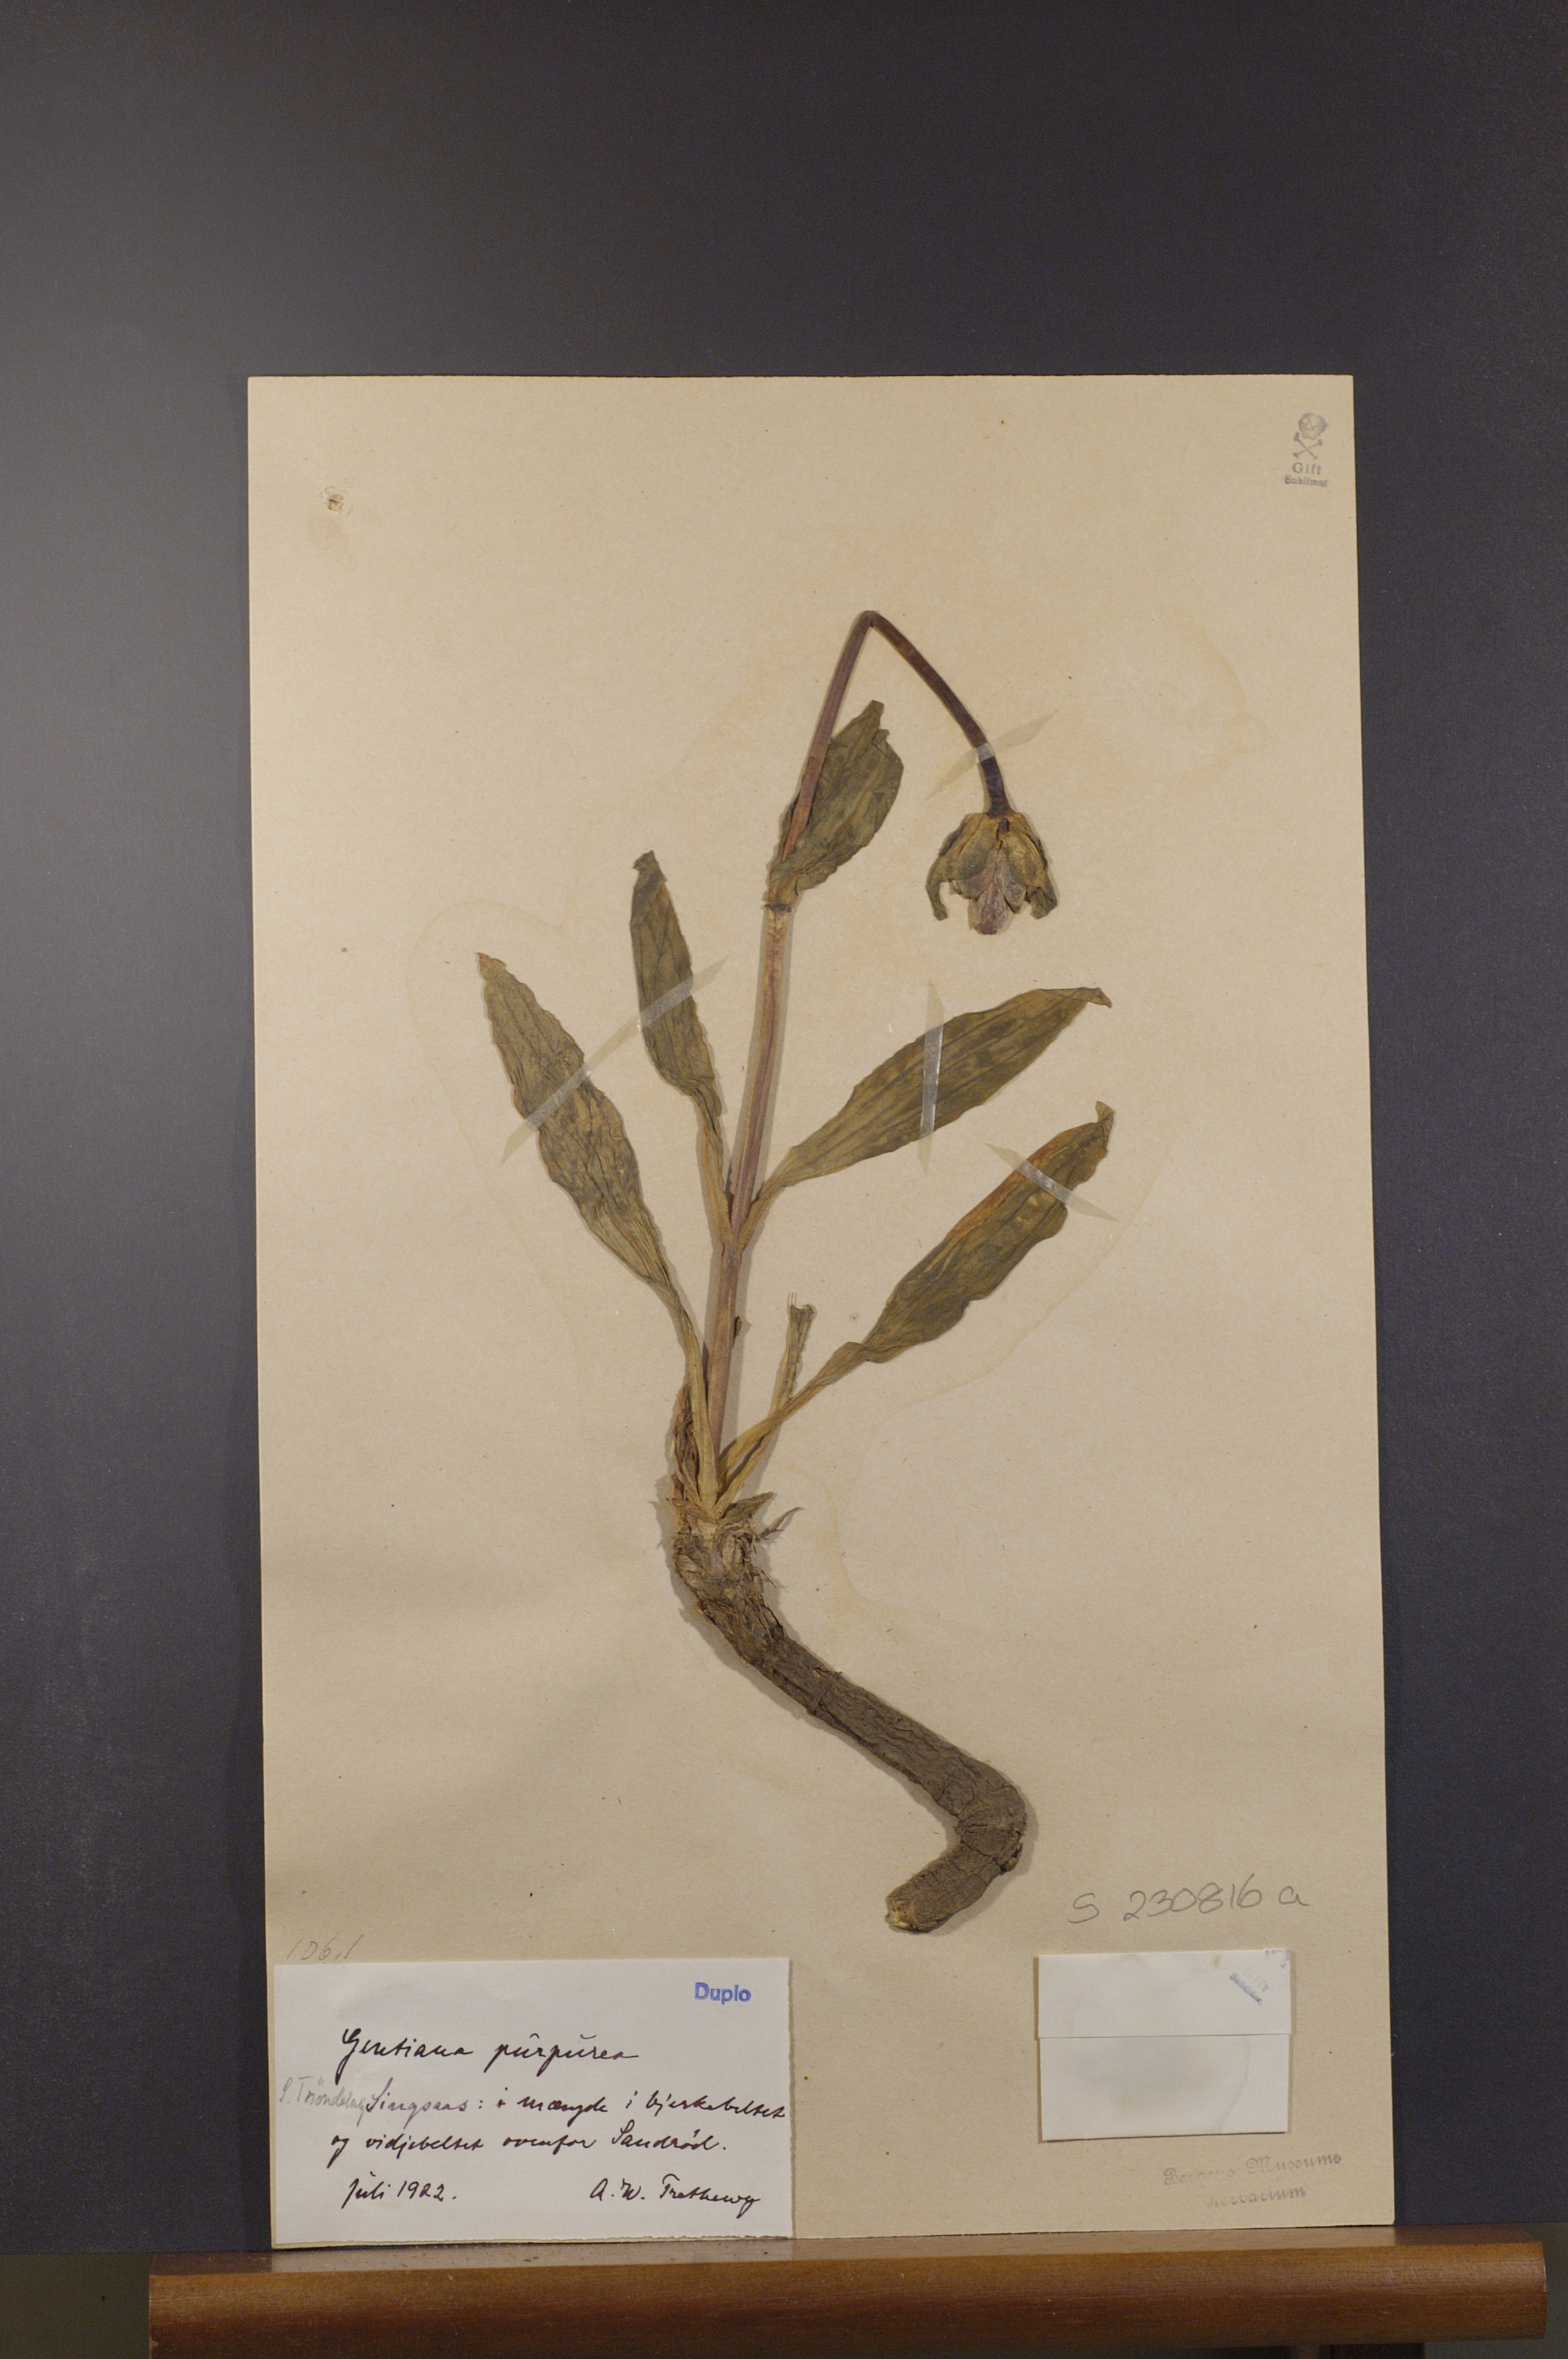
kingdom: Plantae
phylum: Tracheophyta
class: Magnoliopsida
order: Gentianales
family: Gentianaceae
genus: Gentiana
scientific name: Gentiana purpurea
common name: Purple gentian
